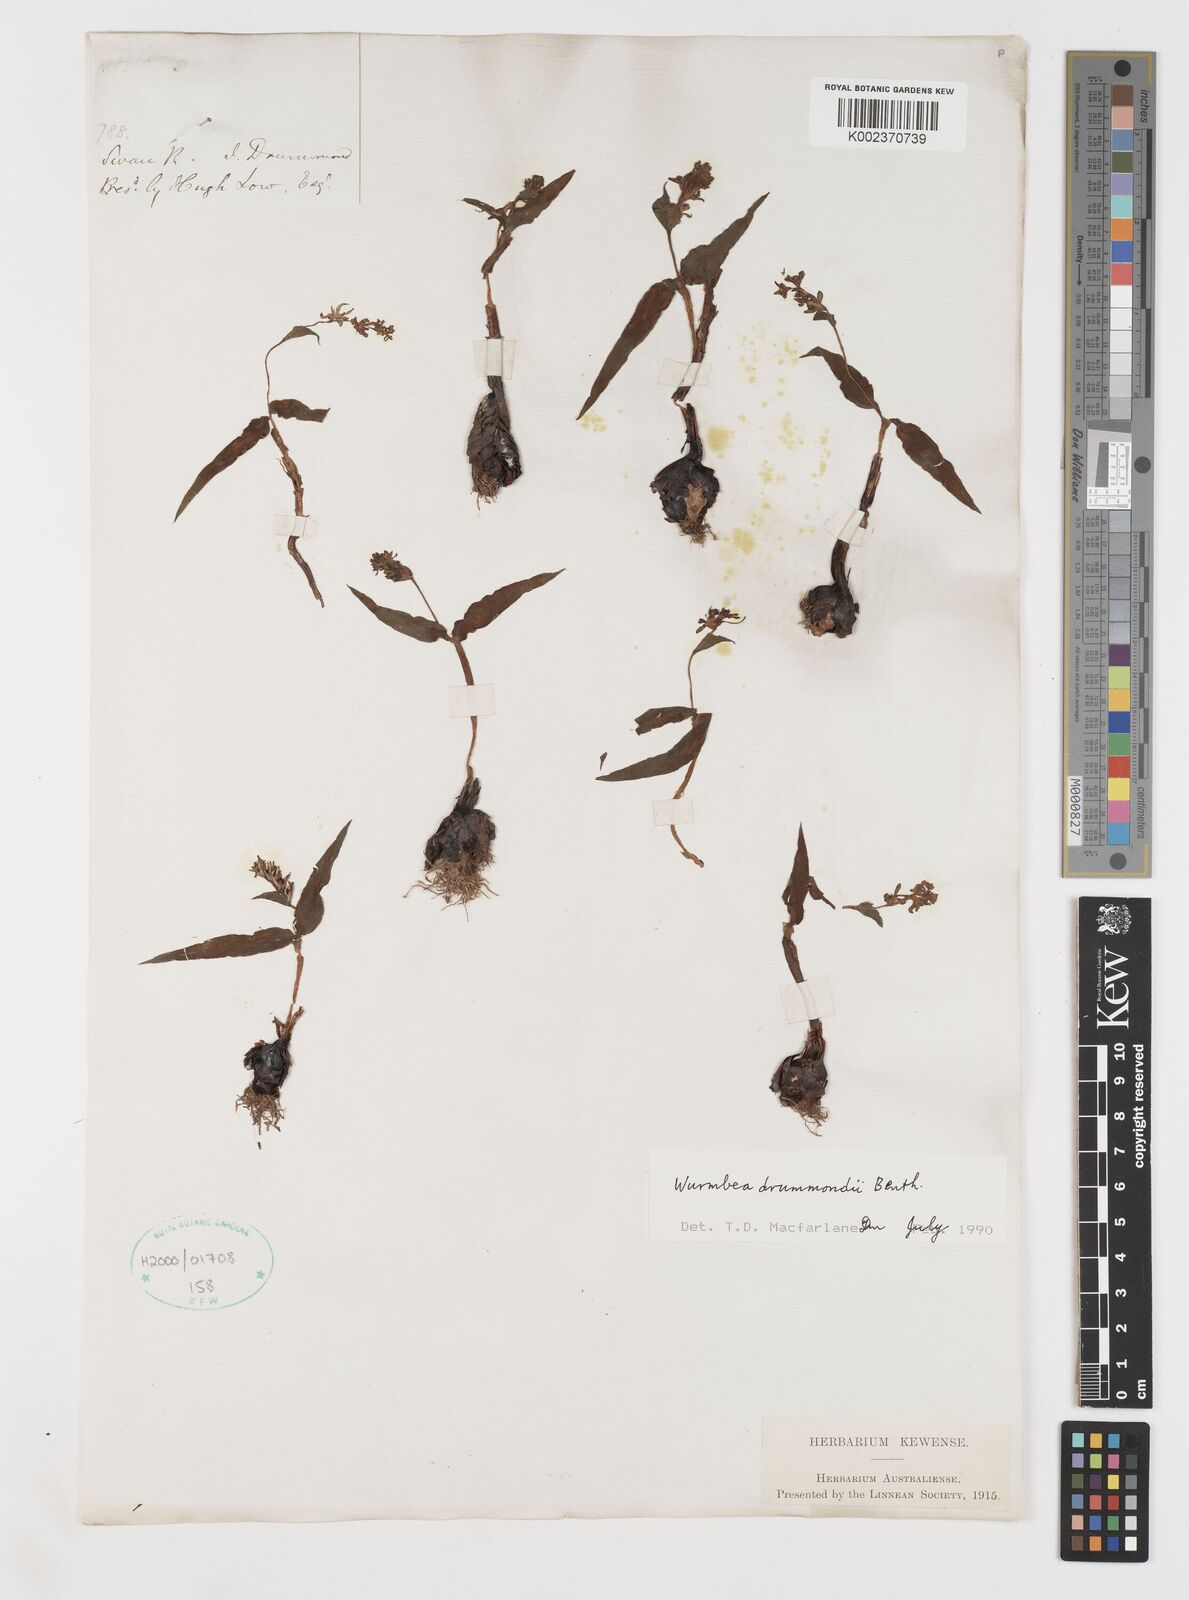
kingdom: Plantae
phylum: Tracheophyta
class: Liliopsida
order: Liliales
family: Colchicaceae
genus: Wurmbea
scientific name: Wurmbea drummondii
